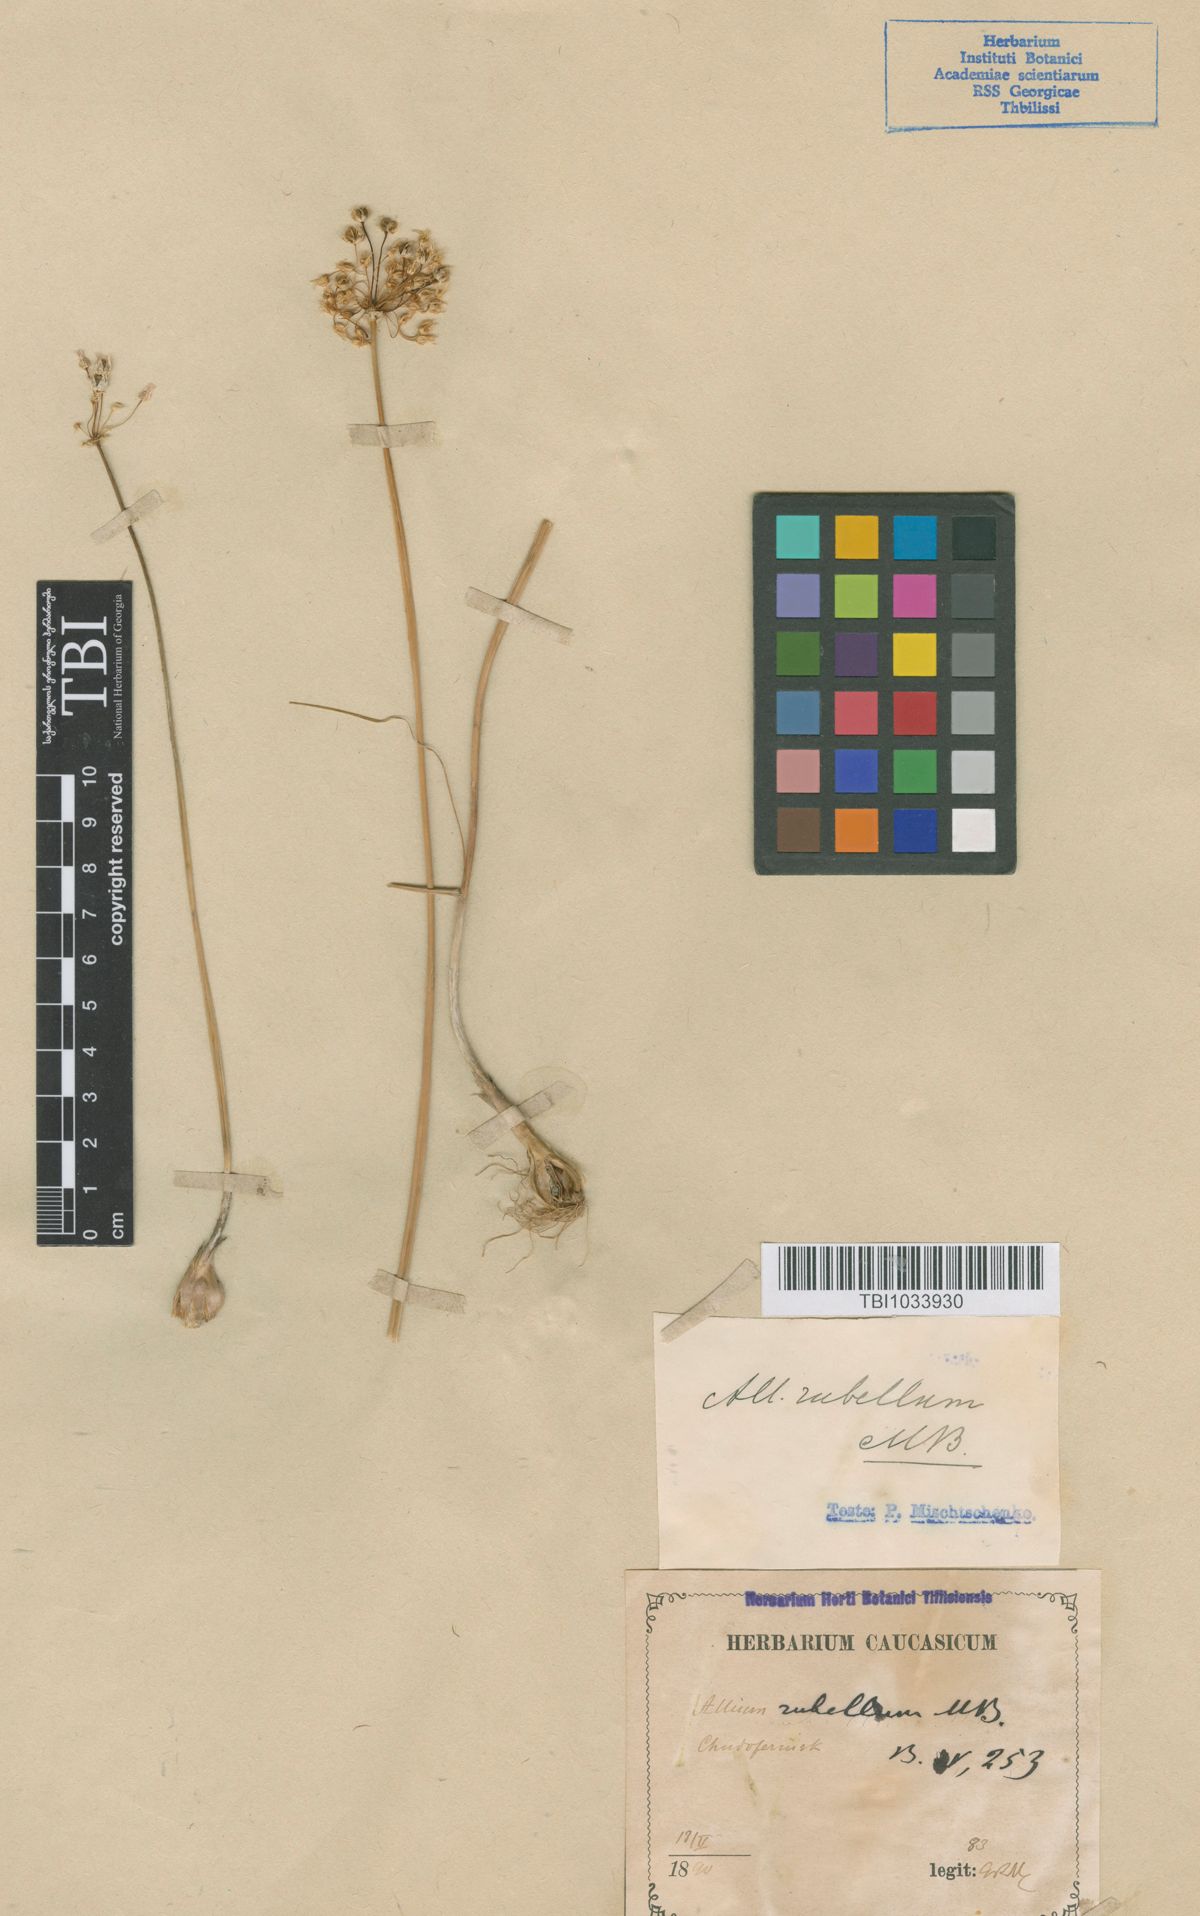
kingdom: Plantae
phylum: Tracheophyta
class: Liliopsida
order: Asparagales
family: Amaryllidaceae
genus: Allium
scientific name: Allium rubellum
